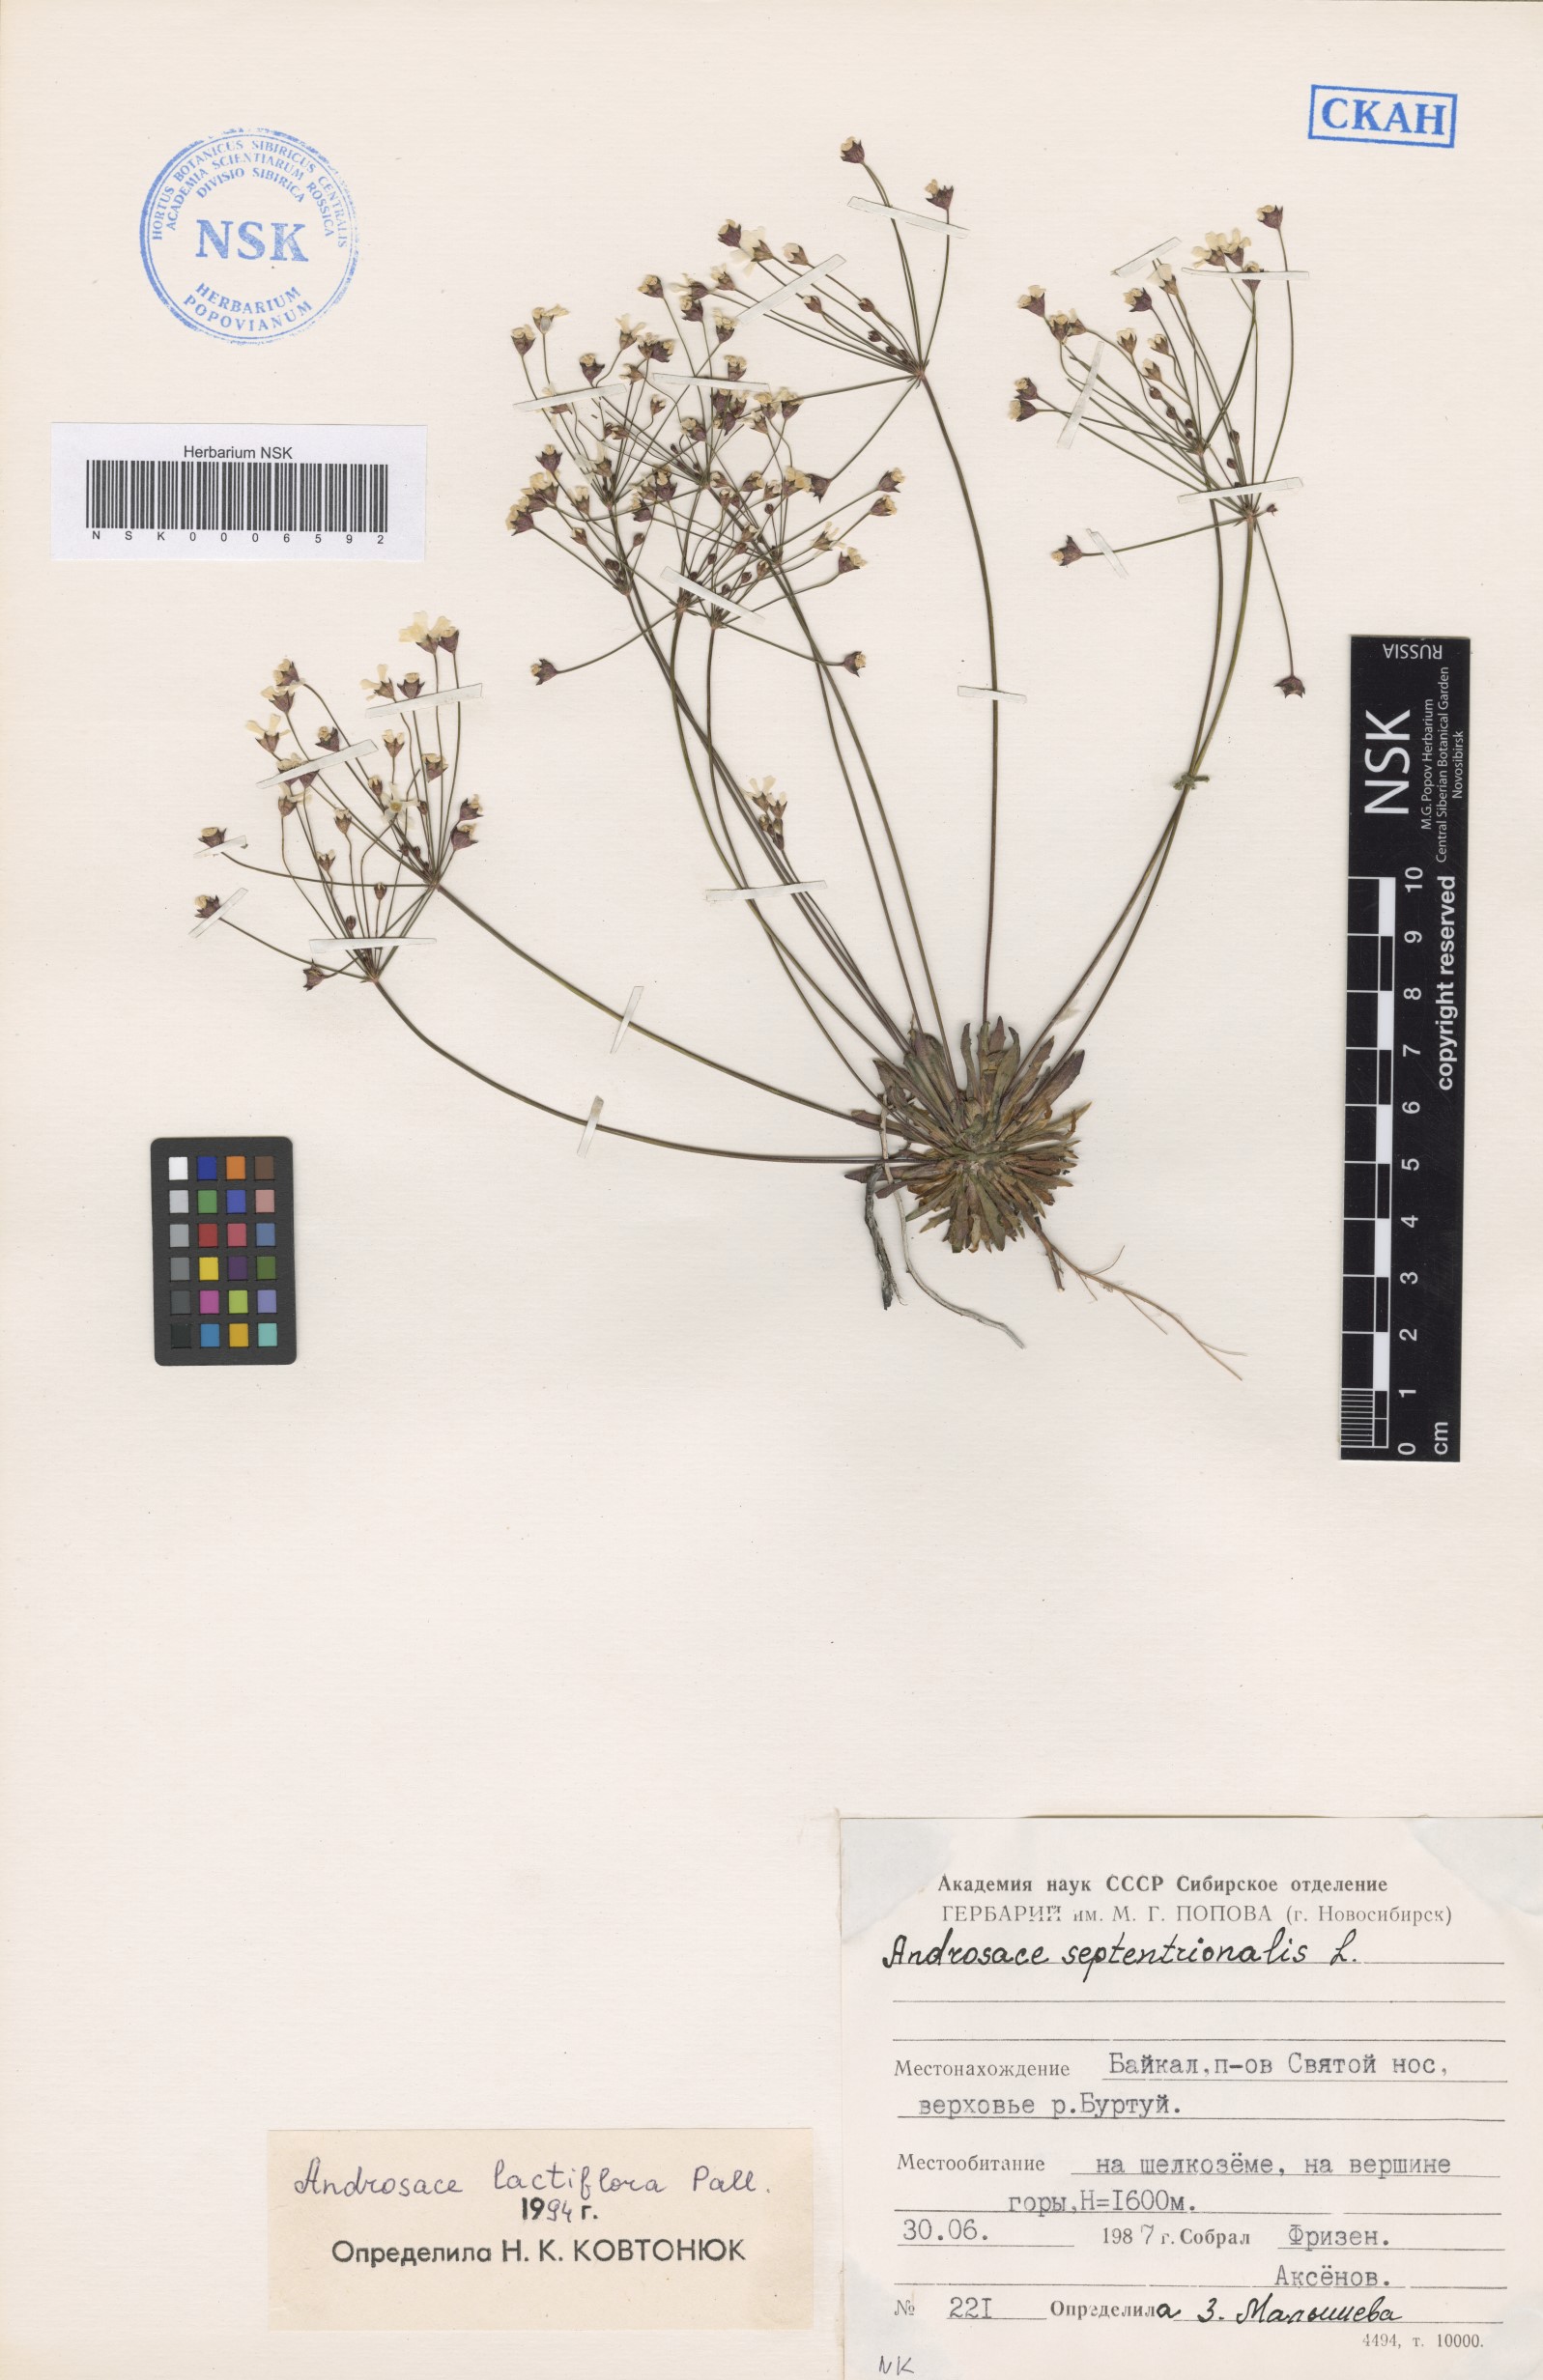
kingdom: Plantae
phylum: Tracheophyta
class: Magnoliopsida
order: Ericales
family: Primulaceae
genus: Androsace
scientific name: Androsace lactiflora
